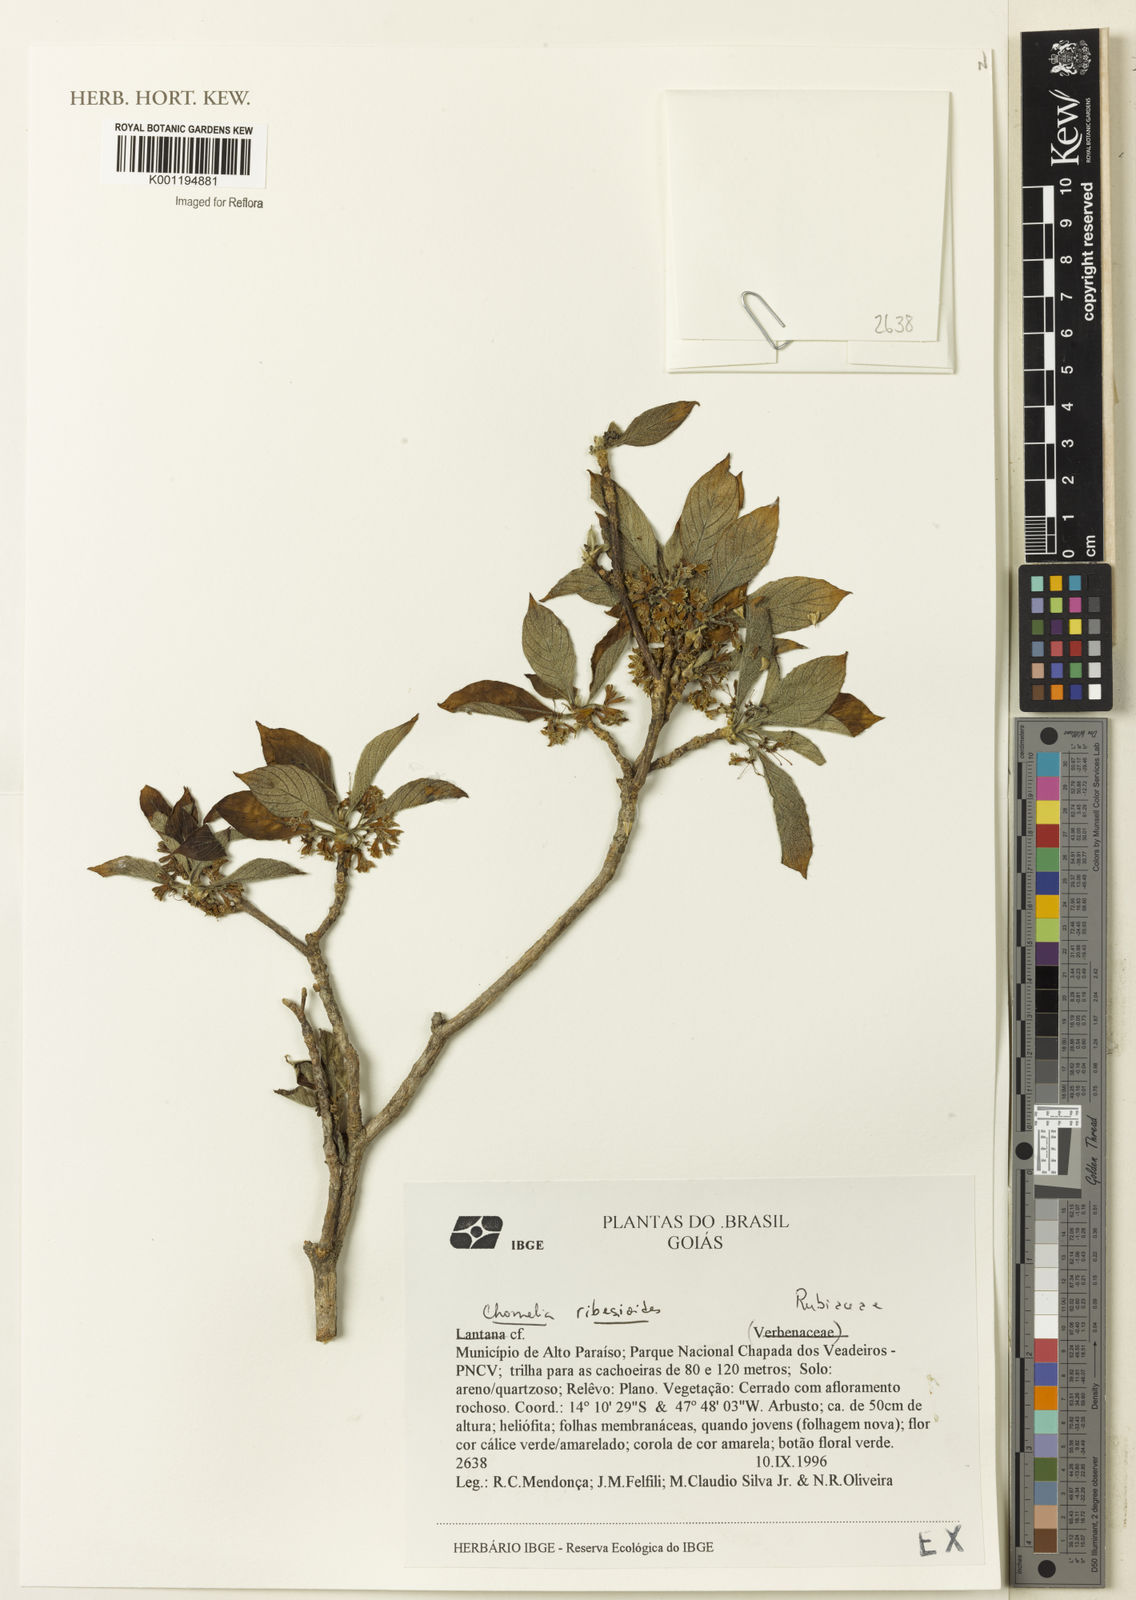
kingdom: Plantae
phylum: Tracheophyta
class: Magnoliopsida
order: Gentianales
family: Rubiaceae
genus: Chomelia
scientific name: Chomelia ribesioides
